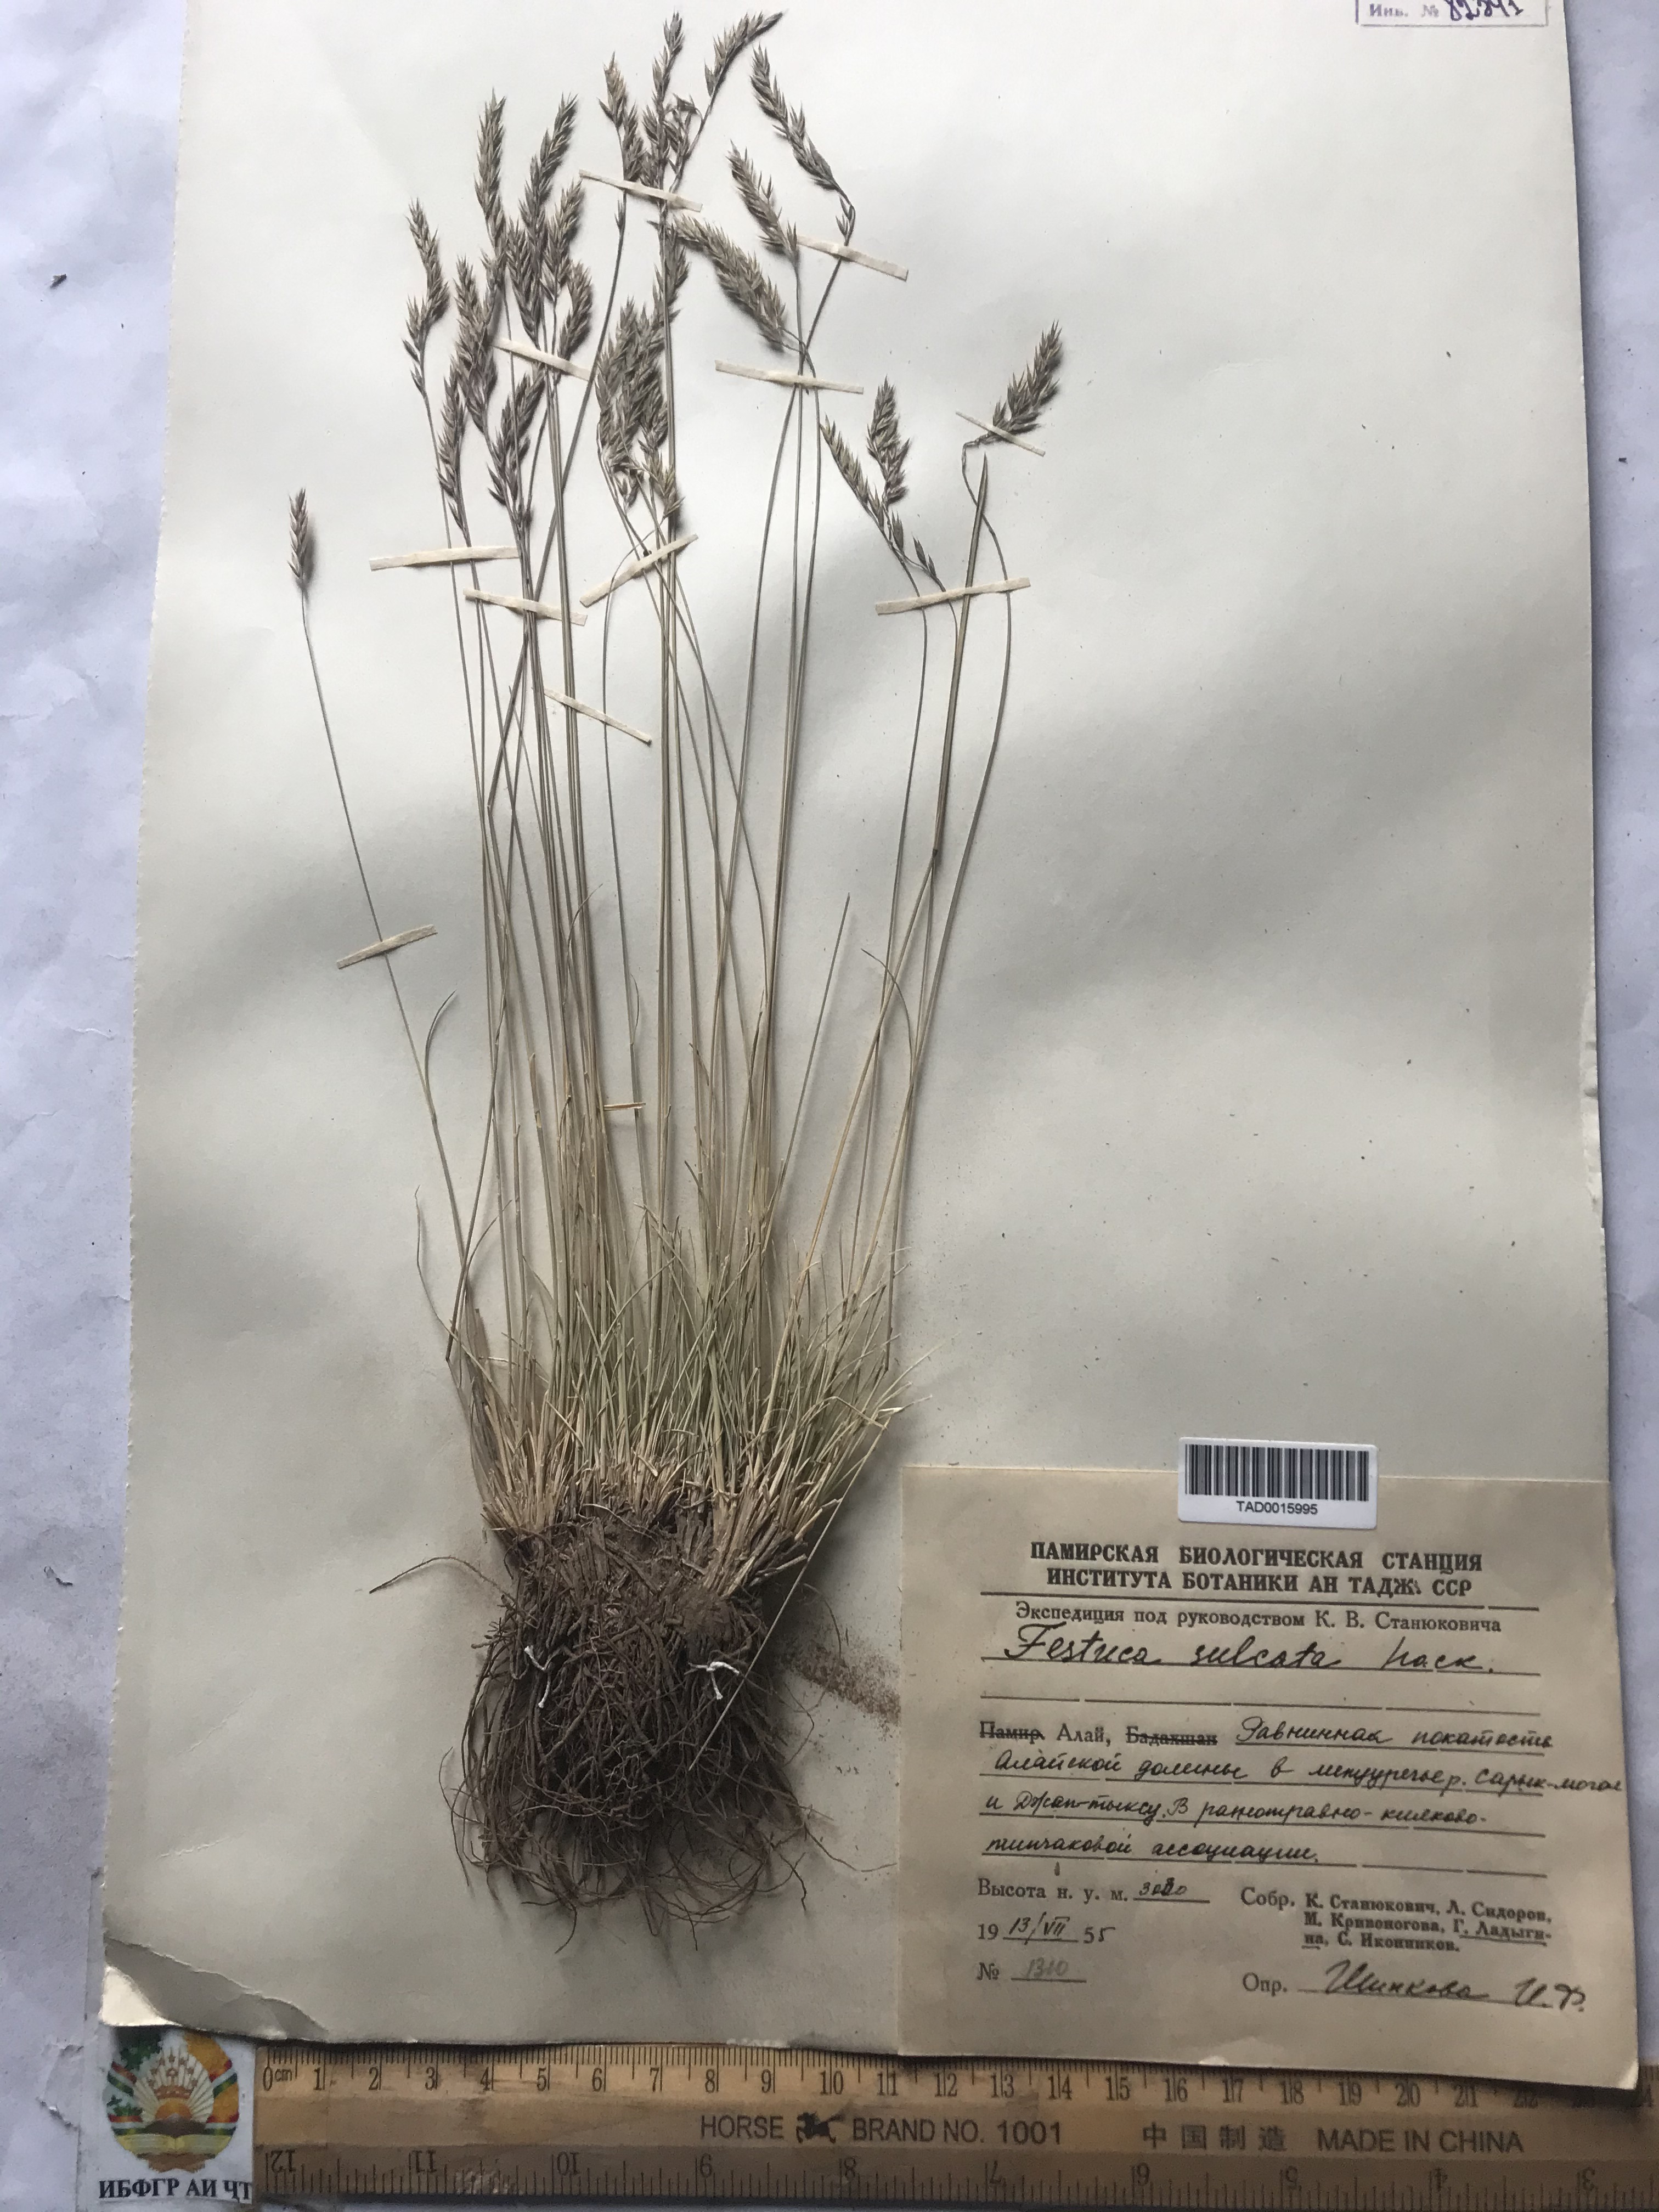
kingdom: Plantae
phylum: Tracheophyta
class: Liliopsida
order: Poales
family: Poaceae
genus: Festuca
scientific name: Festuca sulcata
